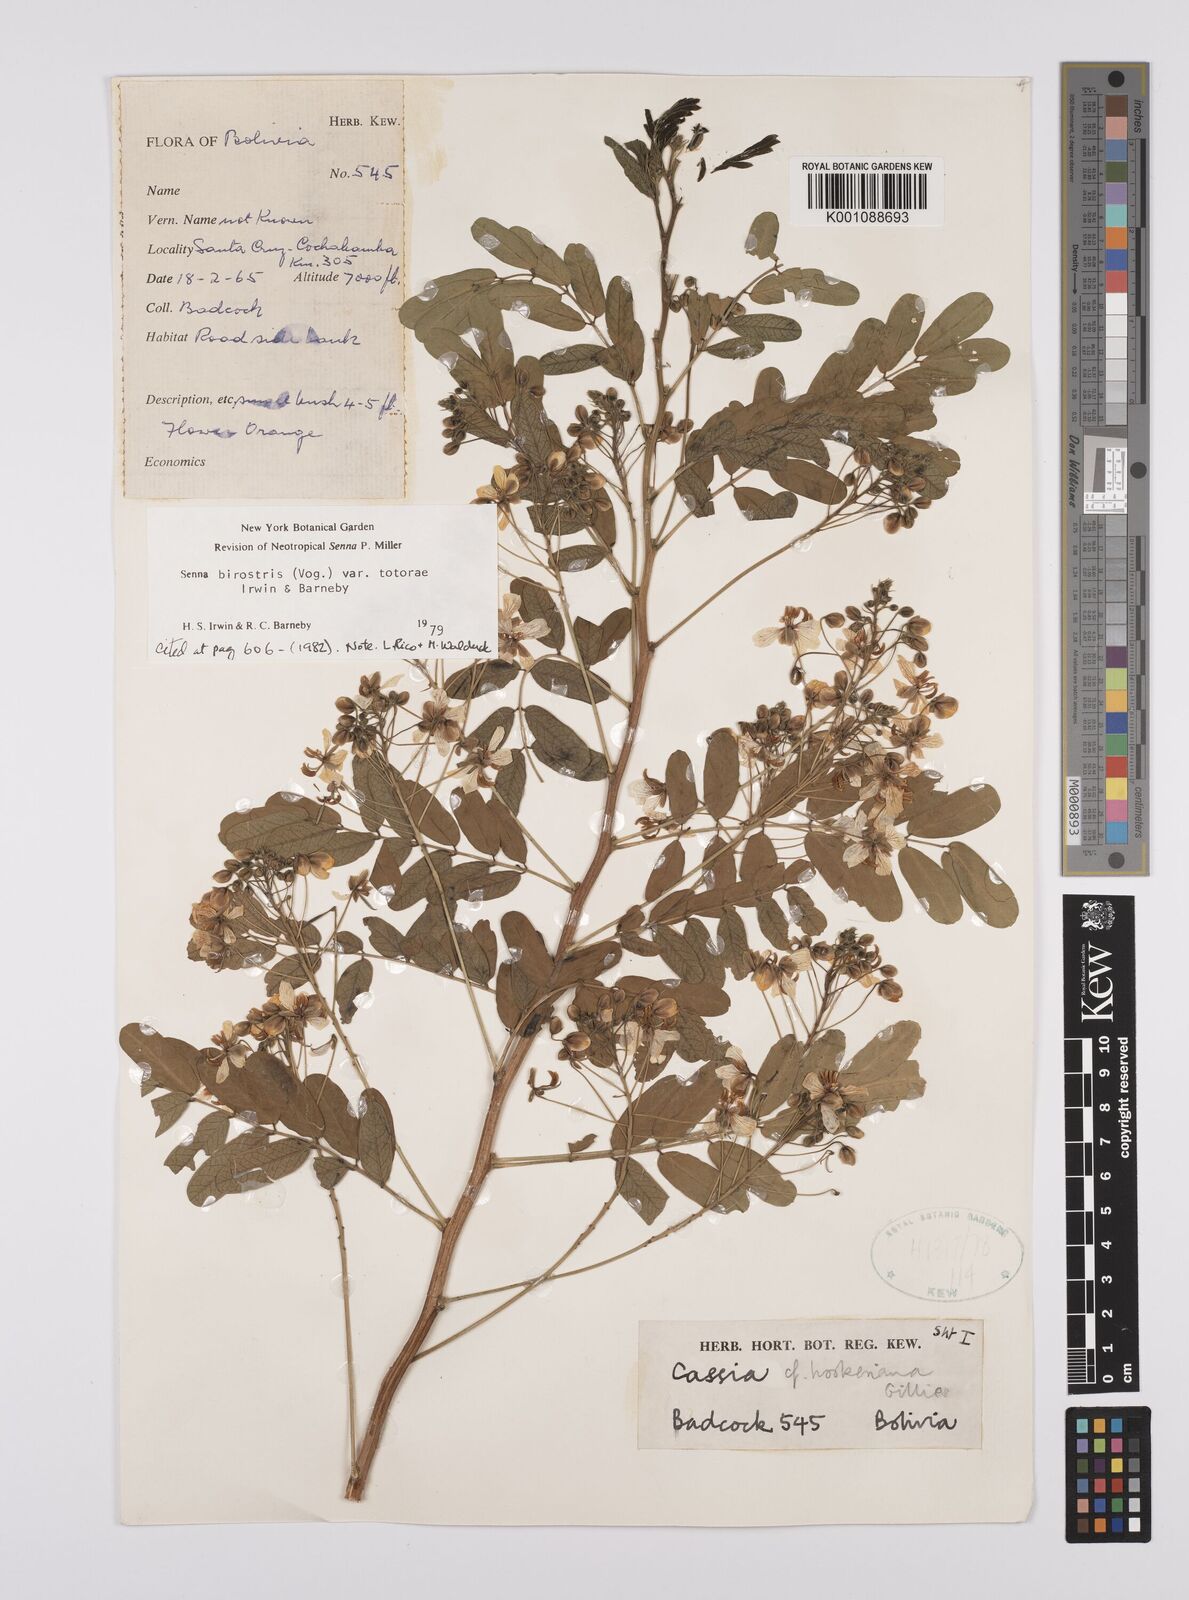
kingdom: Plantae
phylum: Tracheophyta
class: Magnoliopsida
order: Fabales
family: Fabaceae
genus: Senna
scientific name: Senna birostris
